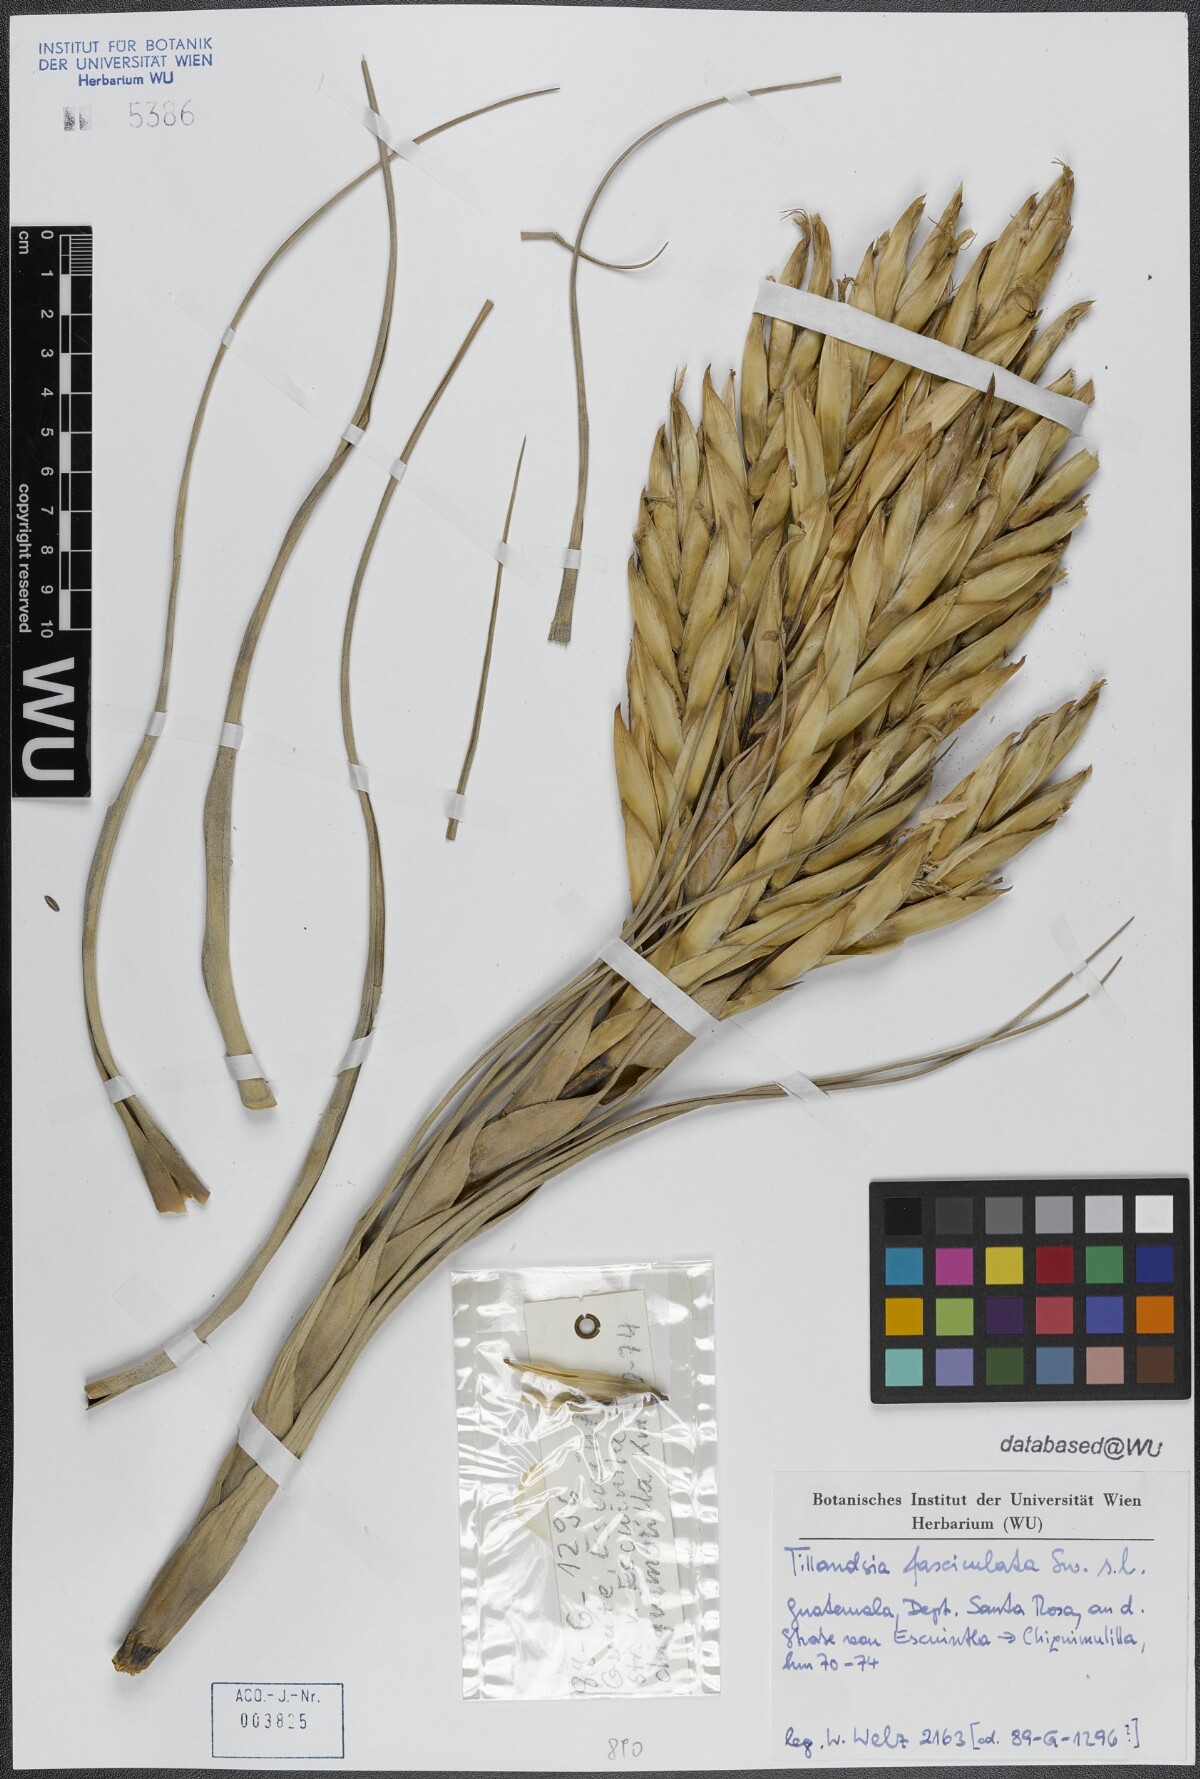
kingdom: Plantae
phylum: Tracheophyta
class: Liliopsida
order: Poales
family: Bromeliaceae
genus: Tillandsia
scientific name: Tillandsia fasciculata
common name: Giant airplant
